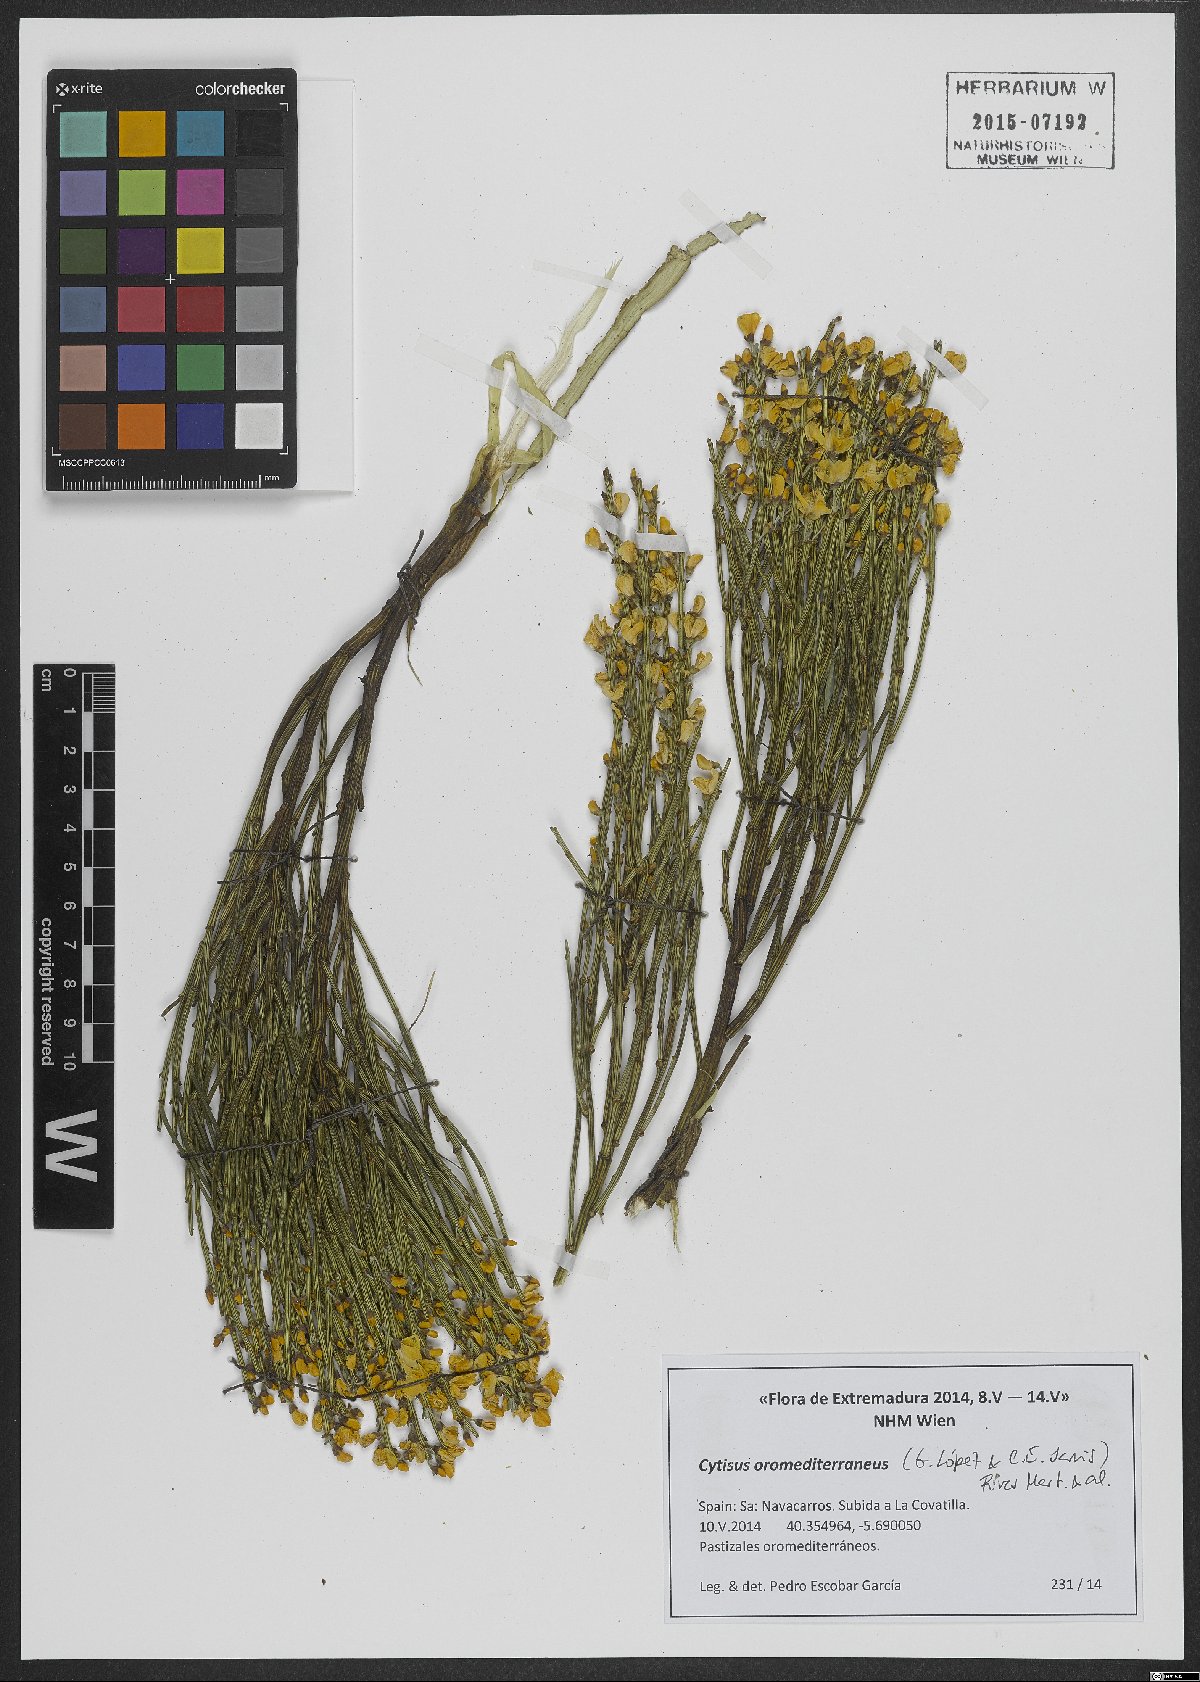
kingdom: Plantae
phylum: Tracheophyta
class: Magnoliopsida
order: Fabales
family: Fabaceae
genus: Cytisus
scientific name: Cytisus oromediterraneus
